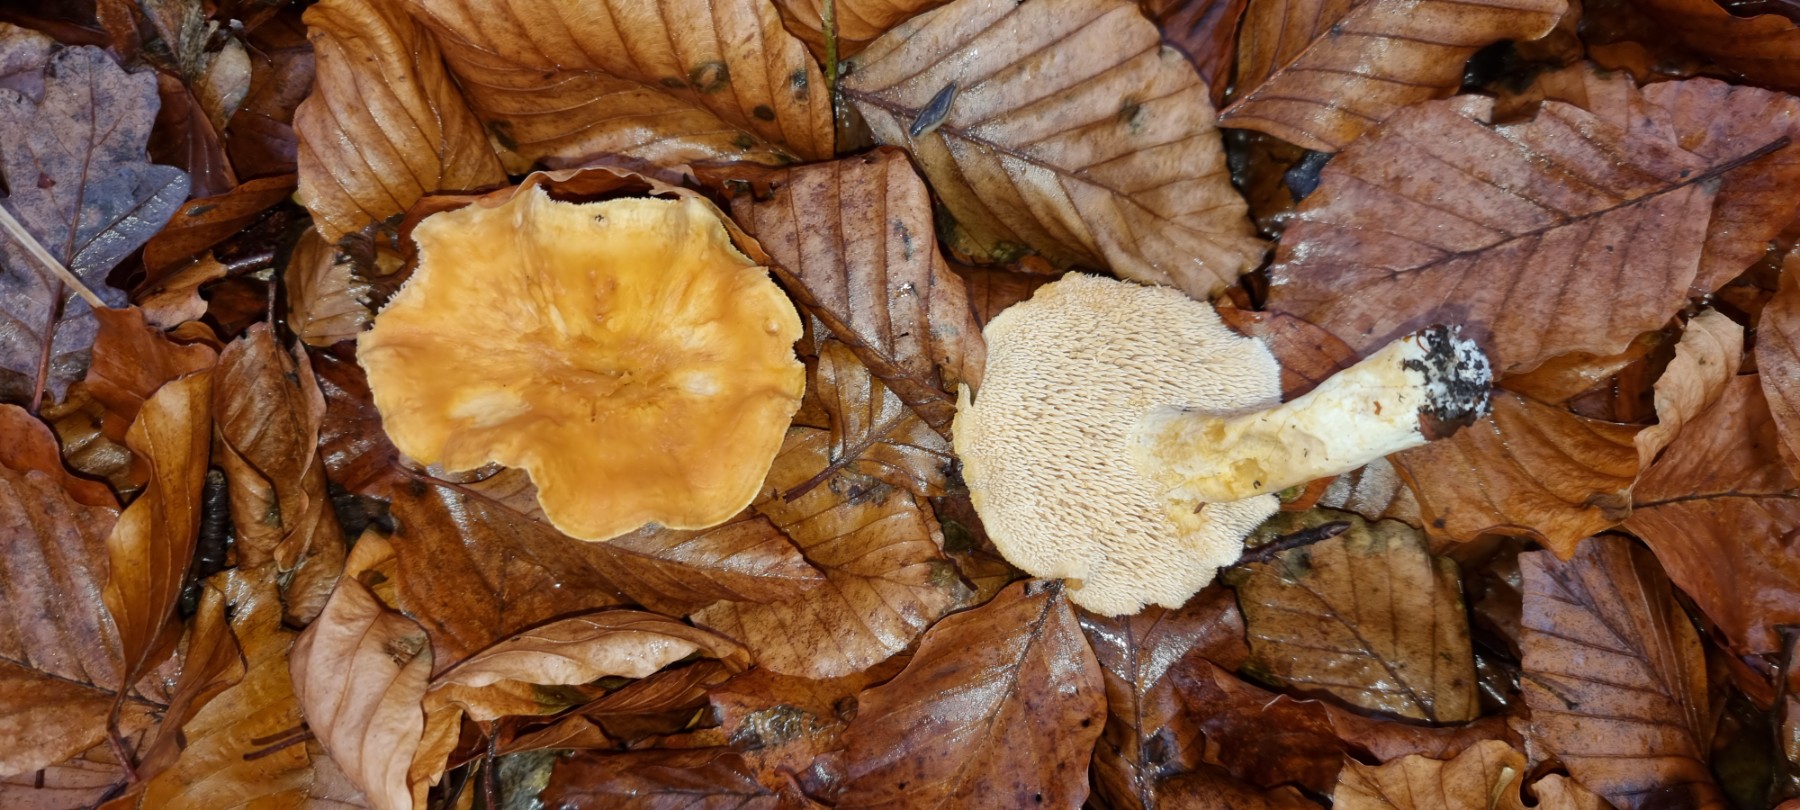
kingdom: Fungi
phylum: Basidiomycota
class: Agaricomycetes
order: Cantharellales
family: Hydnaceae
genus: Hydnum
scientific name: Hydnum rufescens
